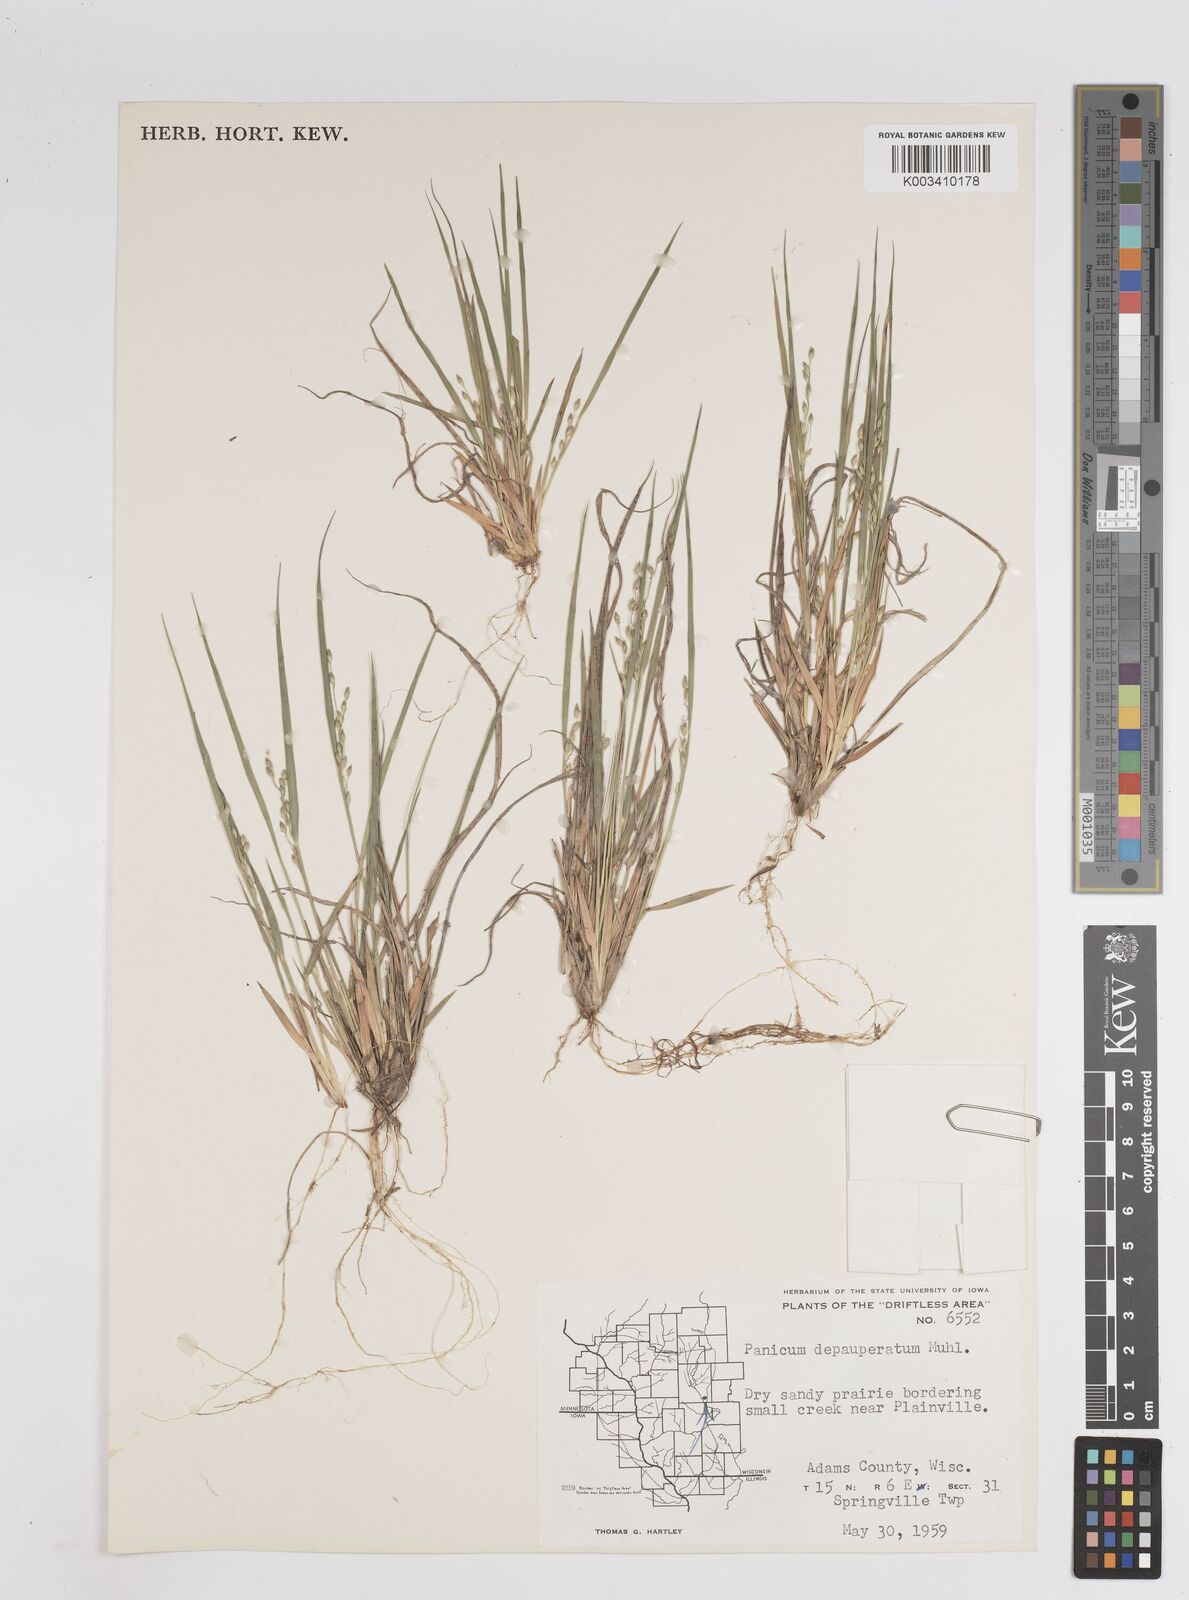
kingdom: Plantae
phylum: Tracheophyta
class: Liliopsida
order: Poales
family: Poaceae
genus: Dichanthelium
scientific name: Dichanthelium depauperatum
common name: Depauperate panicgrass
